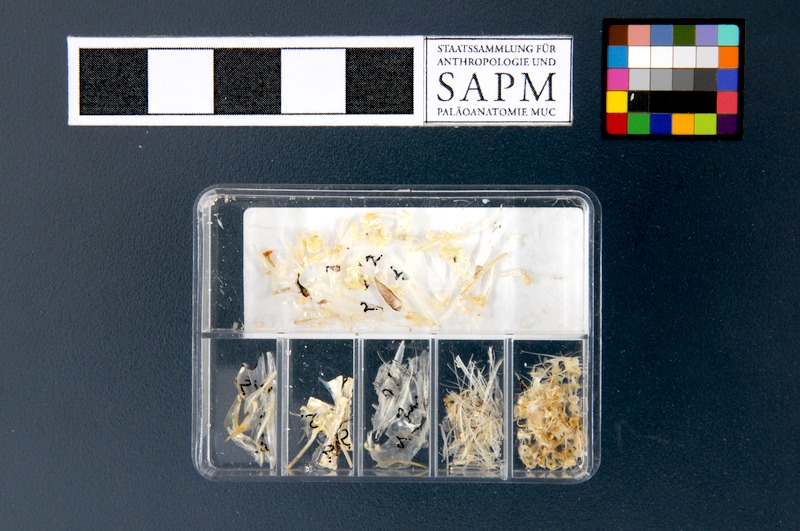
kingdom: Animalia
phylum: Chordata
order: Clupeiformes
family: Engraulidae
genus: Engraulis
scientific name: Engraulis encrasicolus
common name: European anchovy
